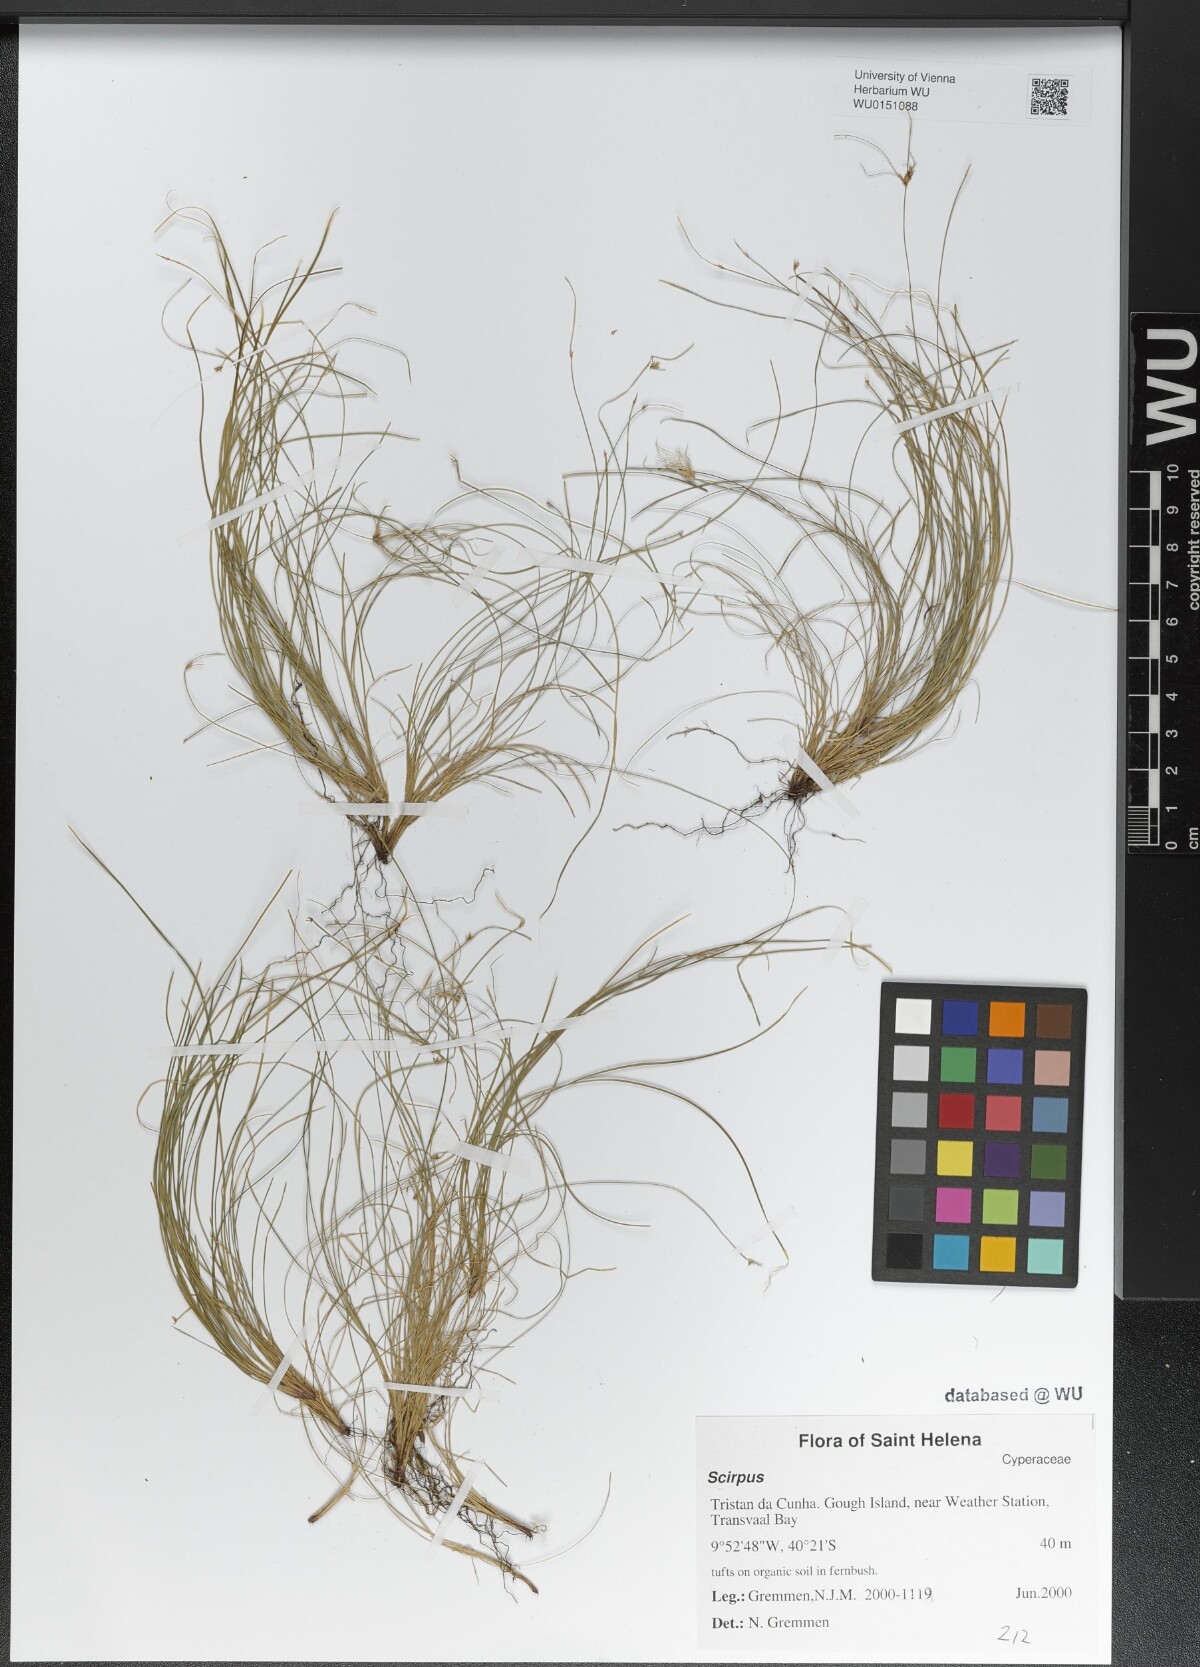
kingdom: Plantae
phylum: Tracheophyta
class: Liliopsida
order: Poales
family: Cyperaceae
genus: Scirpus
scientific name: Scirpus
